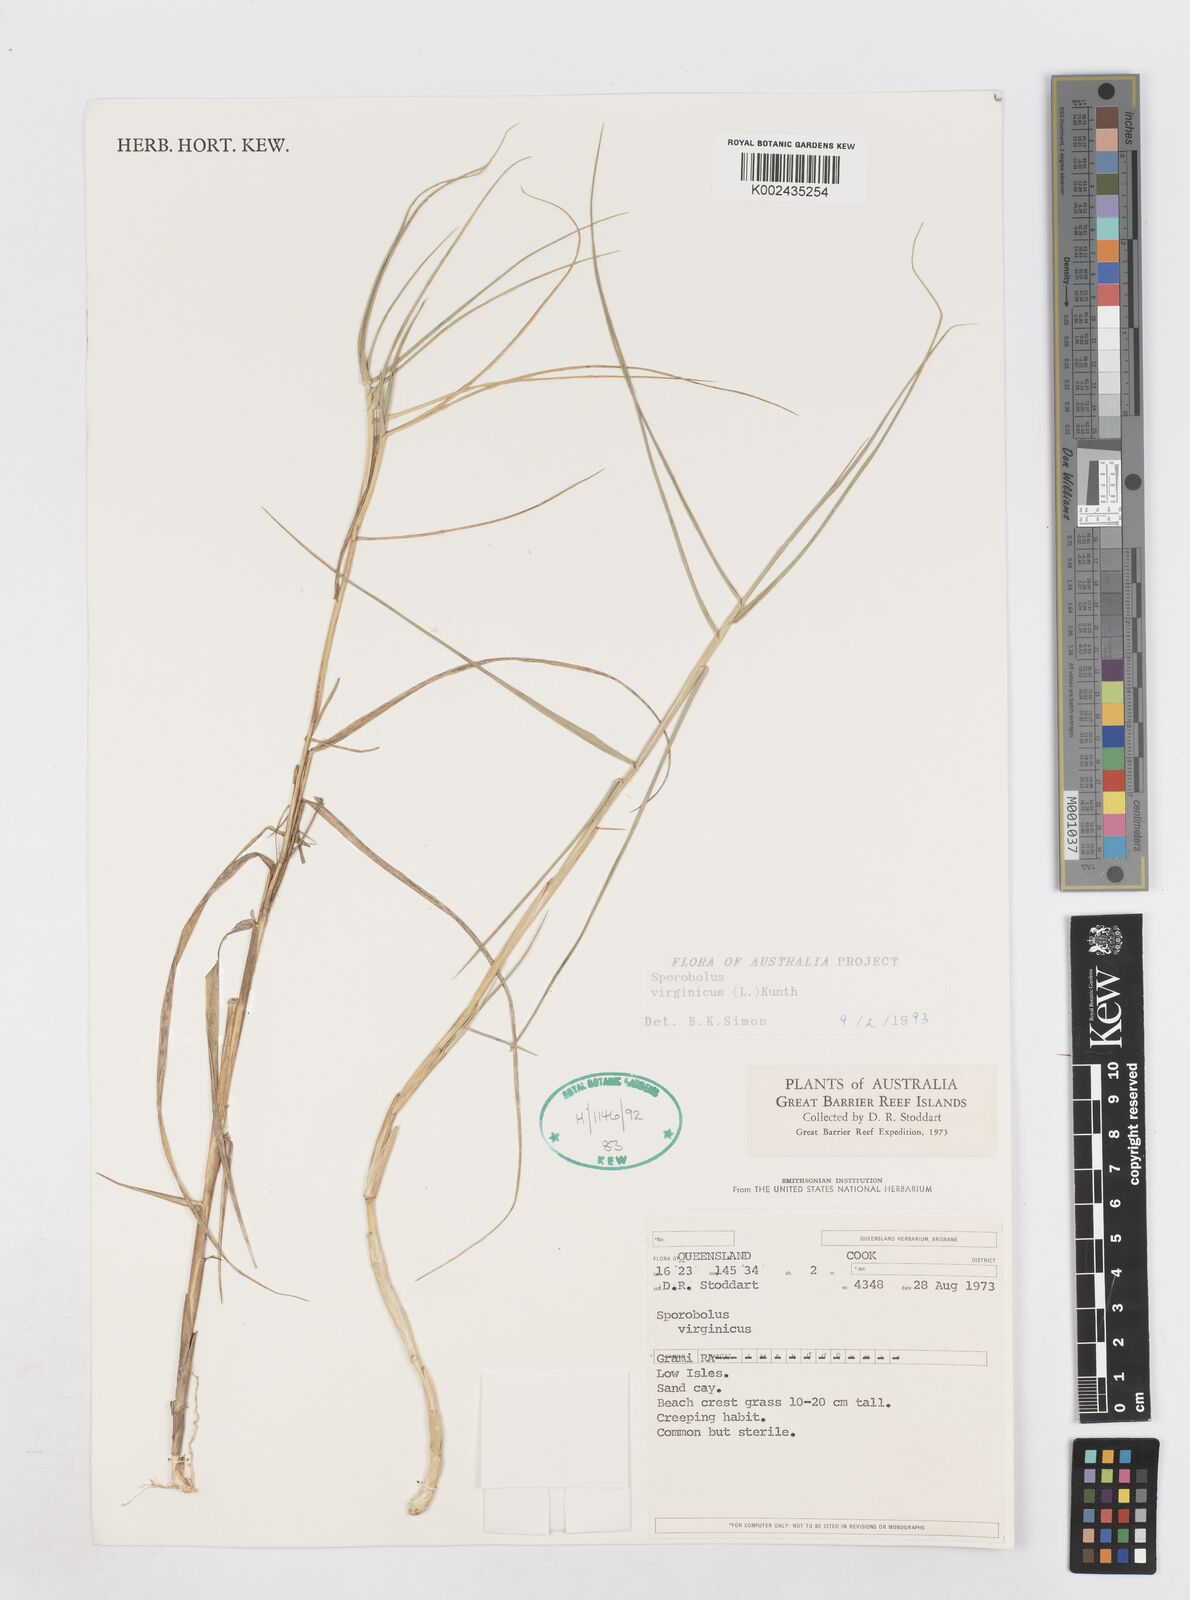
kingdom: Plantae
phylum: Tracheophyta
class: Liliopsida
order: Poales
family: Poaceae
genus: Sporobolus
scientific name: Sporobolus virginicus
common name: Beach dropseed
